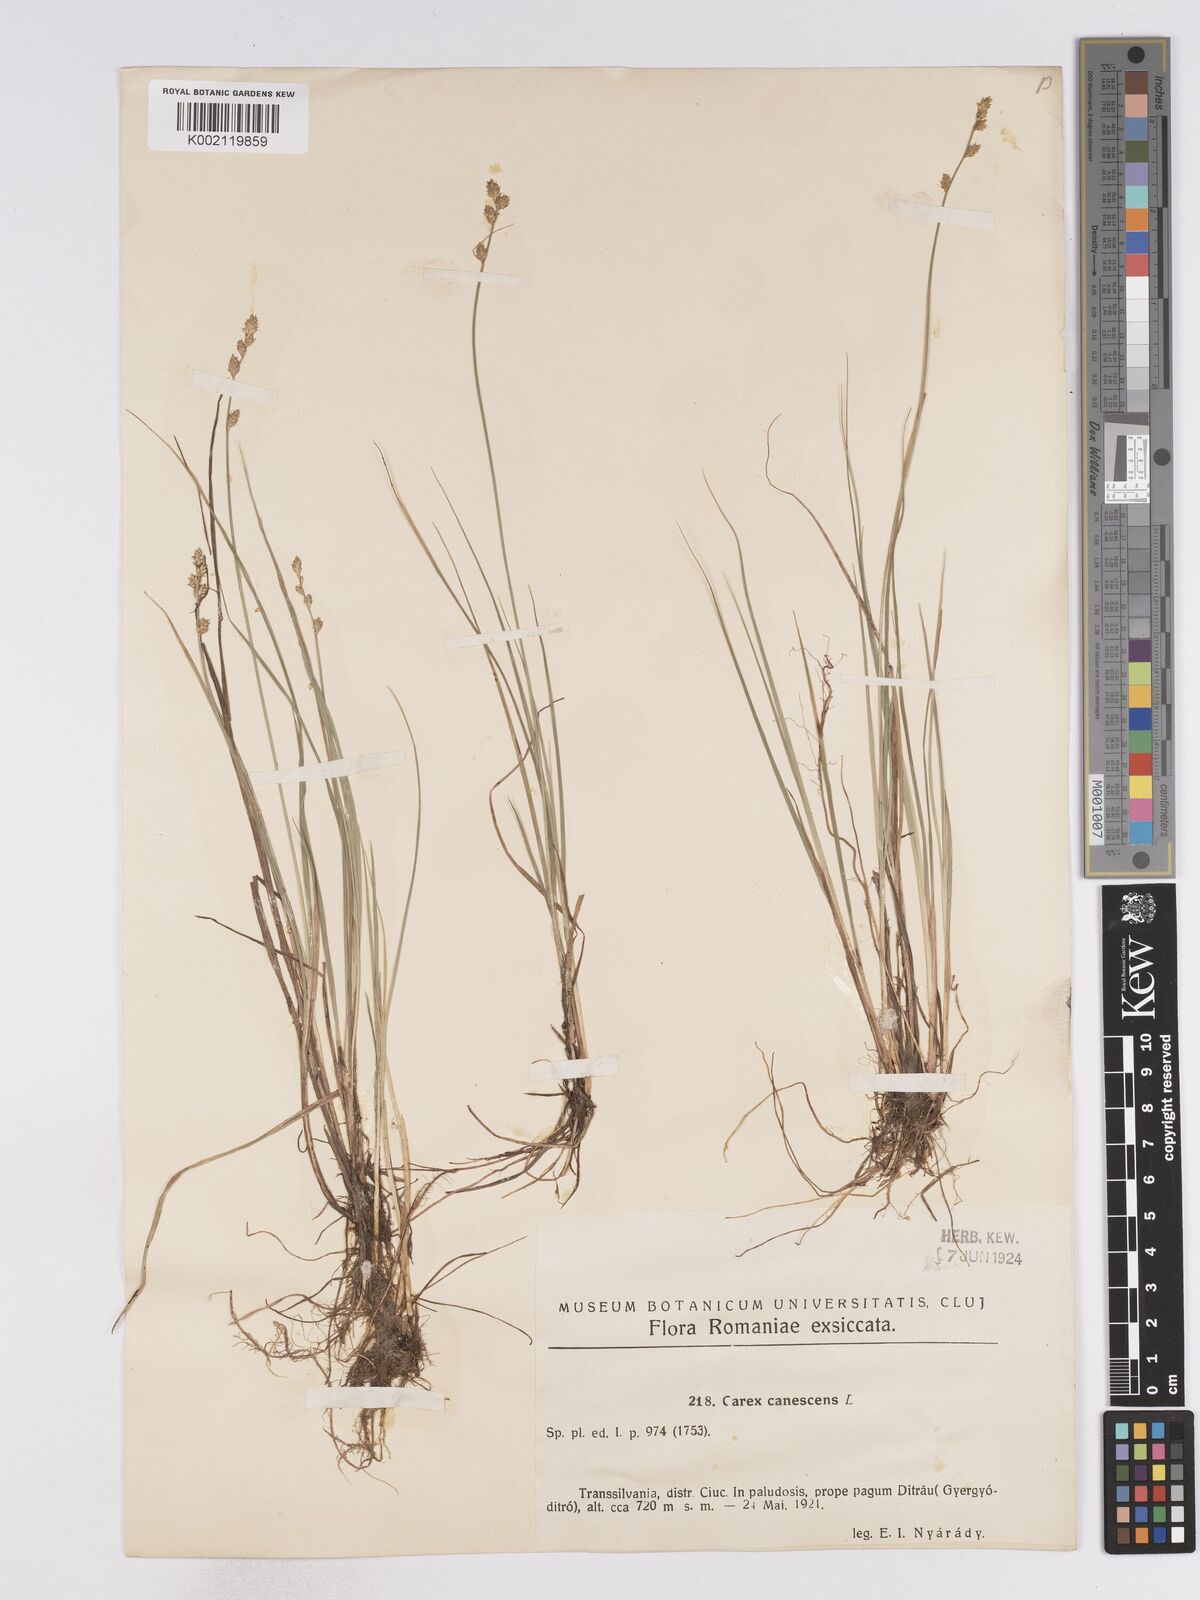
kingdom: Plantae
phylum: Tracheophyta
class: Liliopsida
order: Poales
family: Cyperaceae
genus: Carex
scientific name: Carex curta
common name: White sedge
